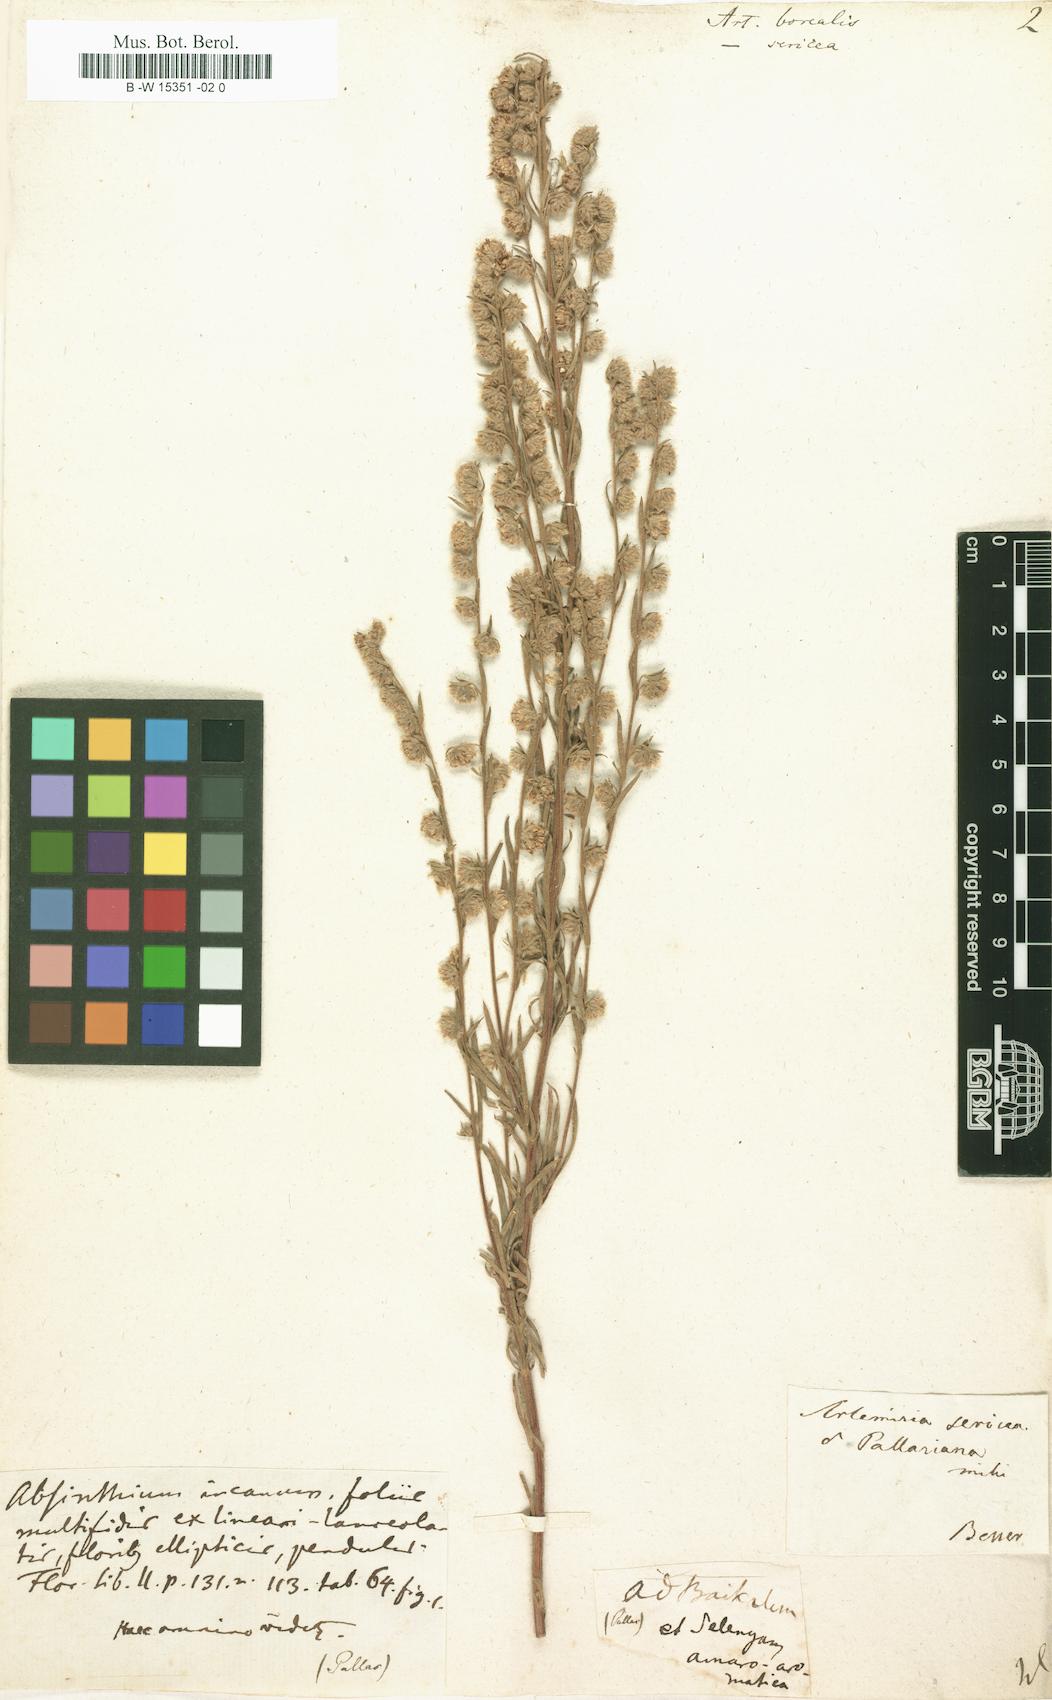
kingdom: Plantae
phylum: Tracheophyta
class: Magnoliopsida
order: Asterales
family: Asteraceae
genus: Artemisia
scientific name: Artemisia borealis
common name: Boreal sage
